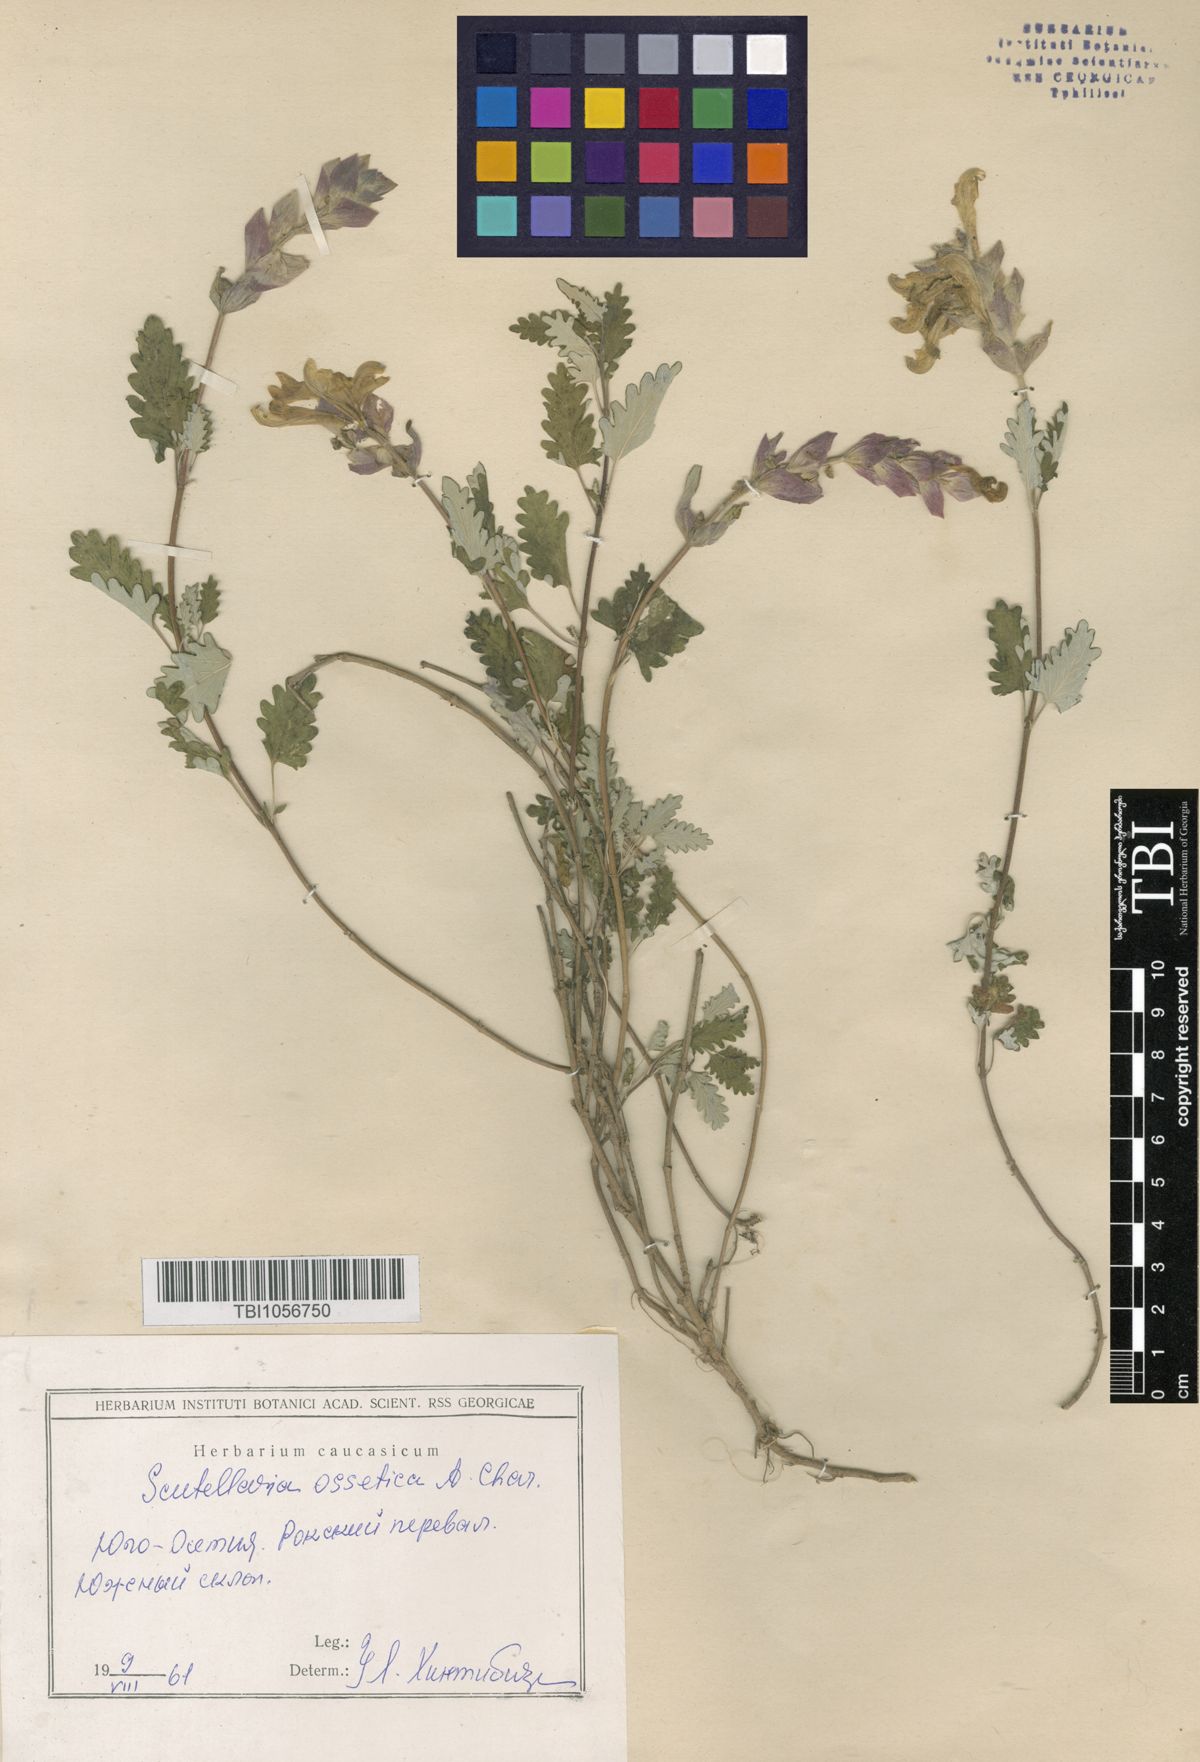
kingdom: Plantae
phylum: Tracheophyta
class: Magnoliopsida
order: Lamiales
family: Lamiaceae
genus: Scutellaria
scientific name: Scutellaria ossethica
